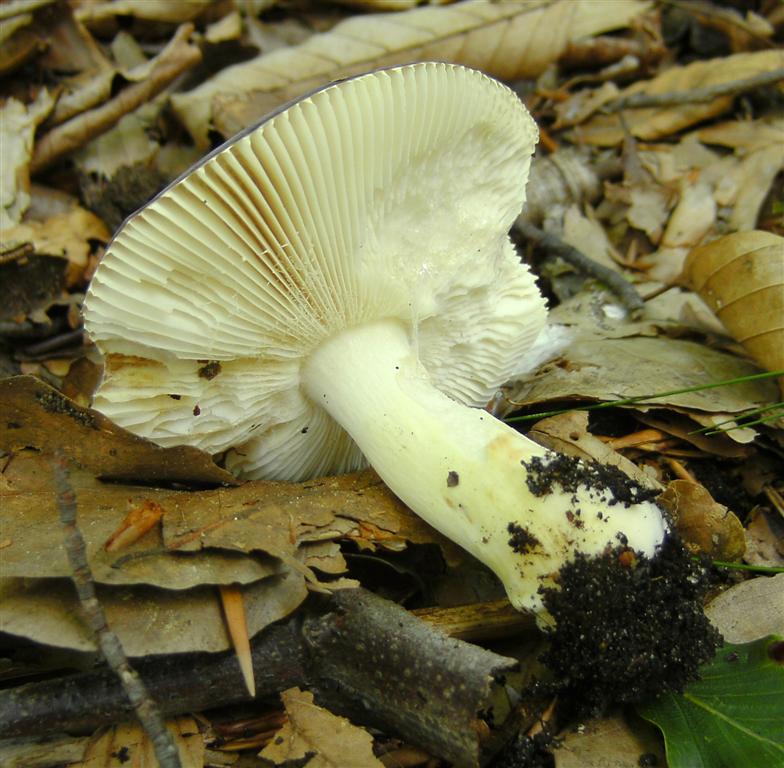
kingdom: Fungi
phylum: Basidiomycota
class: Agaricomycetes
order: Russulales
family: Russulaceae
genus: Russula
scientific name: Russula
